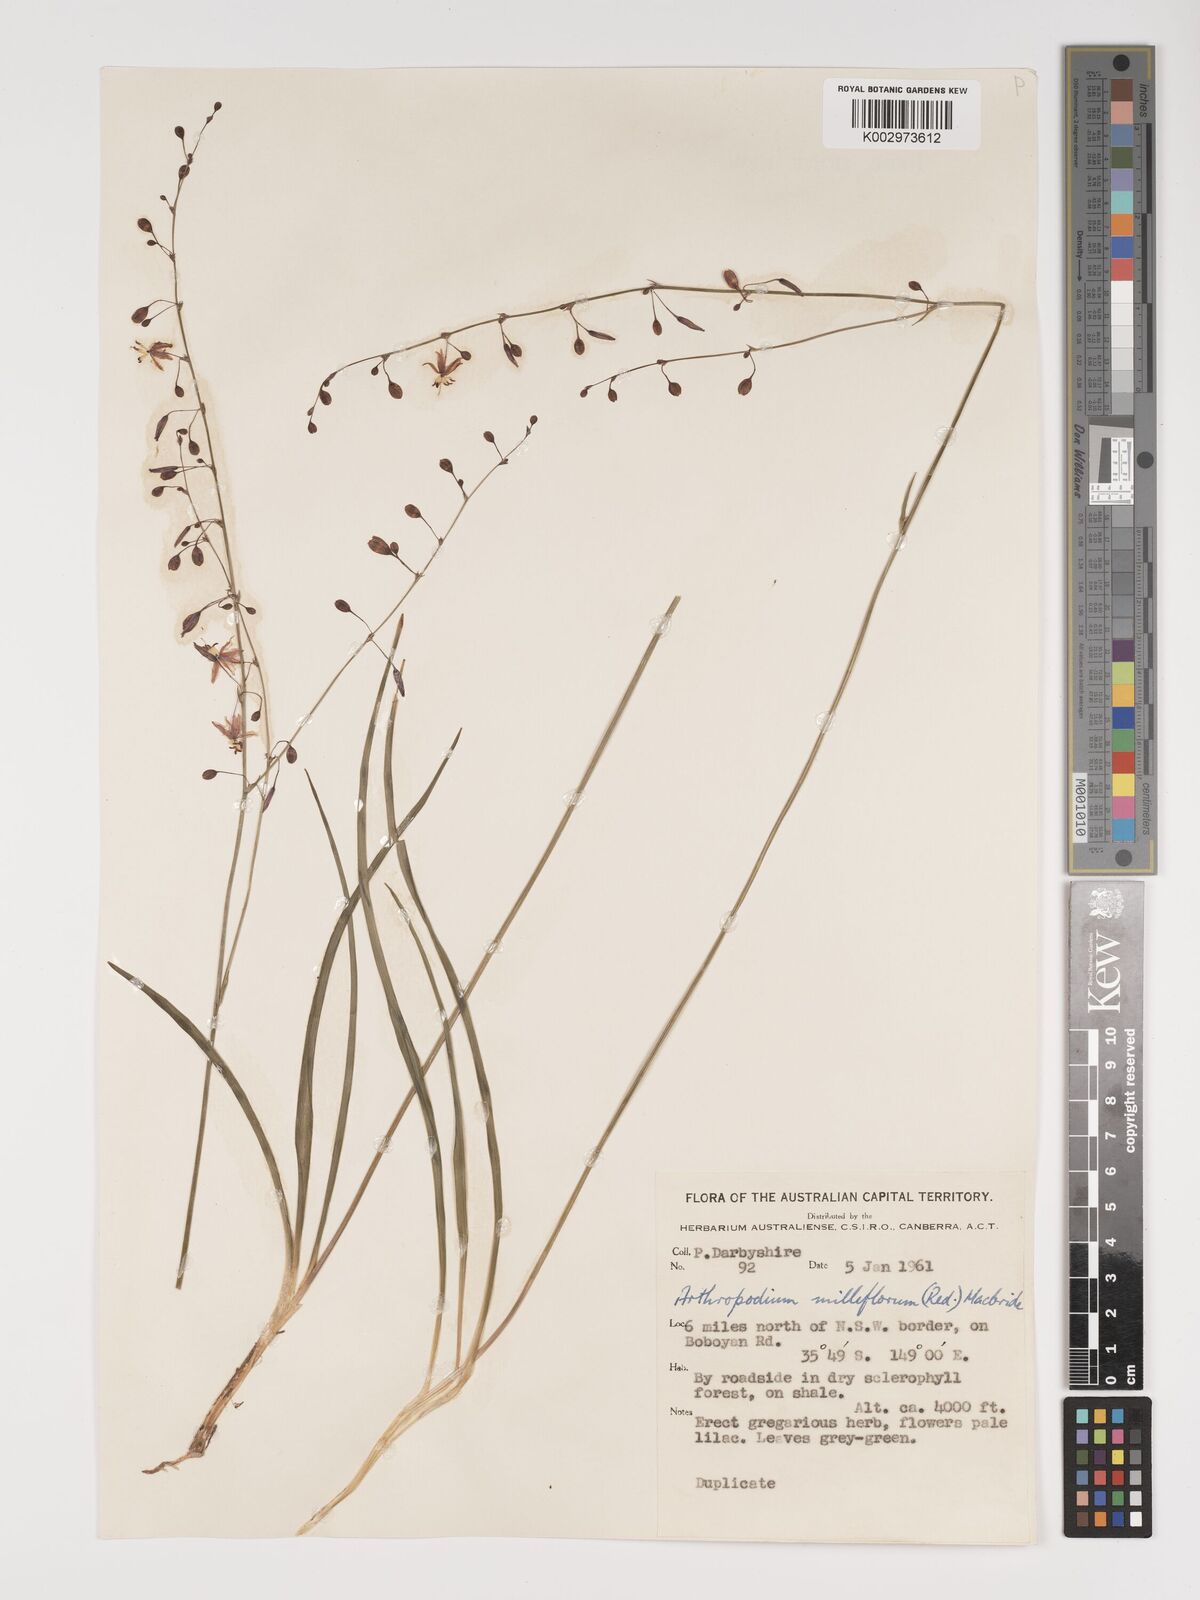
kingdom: Plantae
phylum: Tracheophyta
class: Liliopsida
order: Asparagales
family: Asparagaceae
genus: Arthropodium
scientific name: Arthropodium milleflorum
